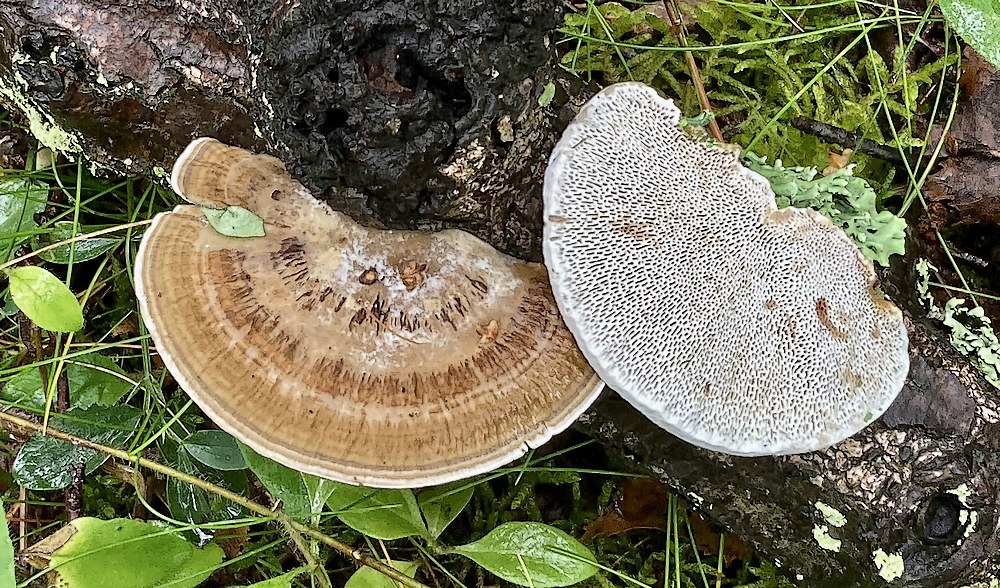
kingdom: Fungi
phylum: Basidiomycota
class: Agaricomycetes
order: Polyporales
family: Polyporaceae
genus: Daedaleopsis
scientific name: Daedaleopsis confragosa
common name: rødmende læderporesvamp
